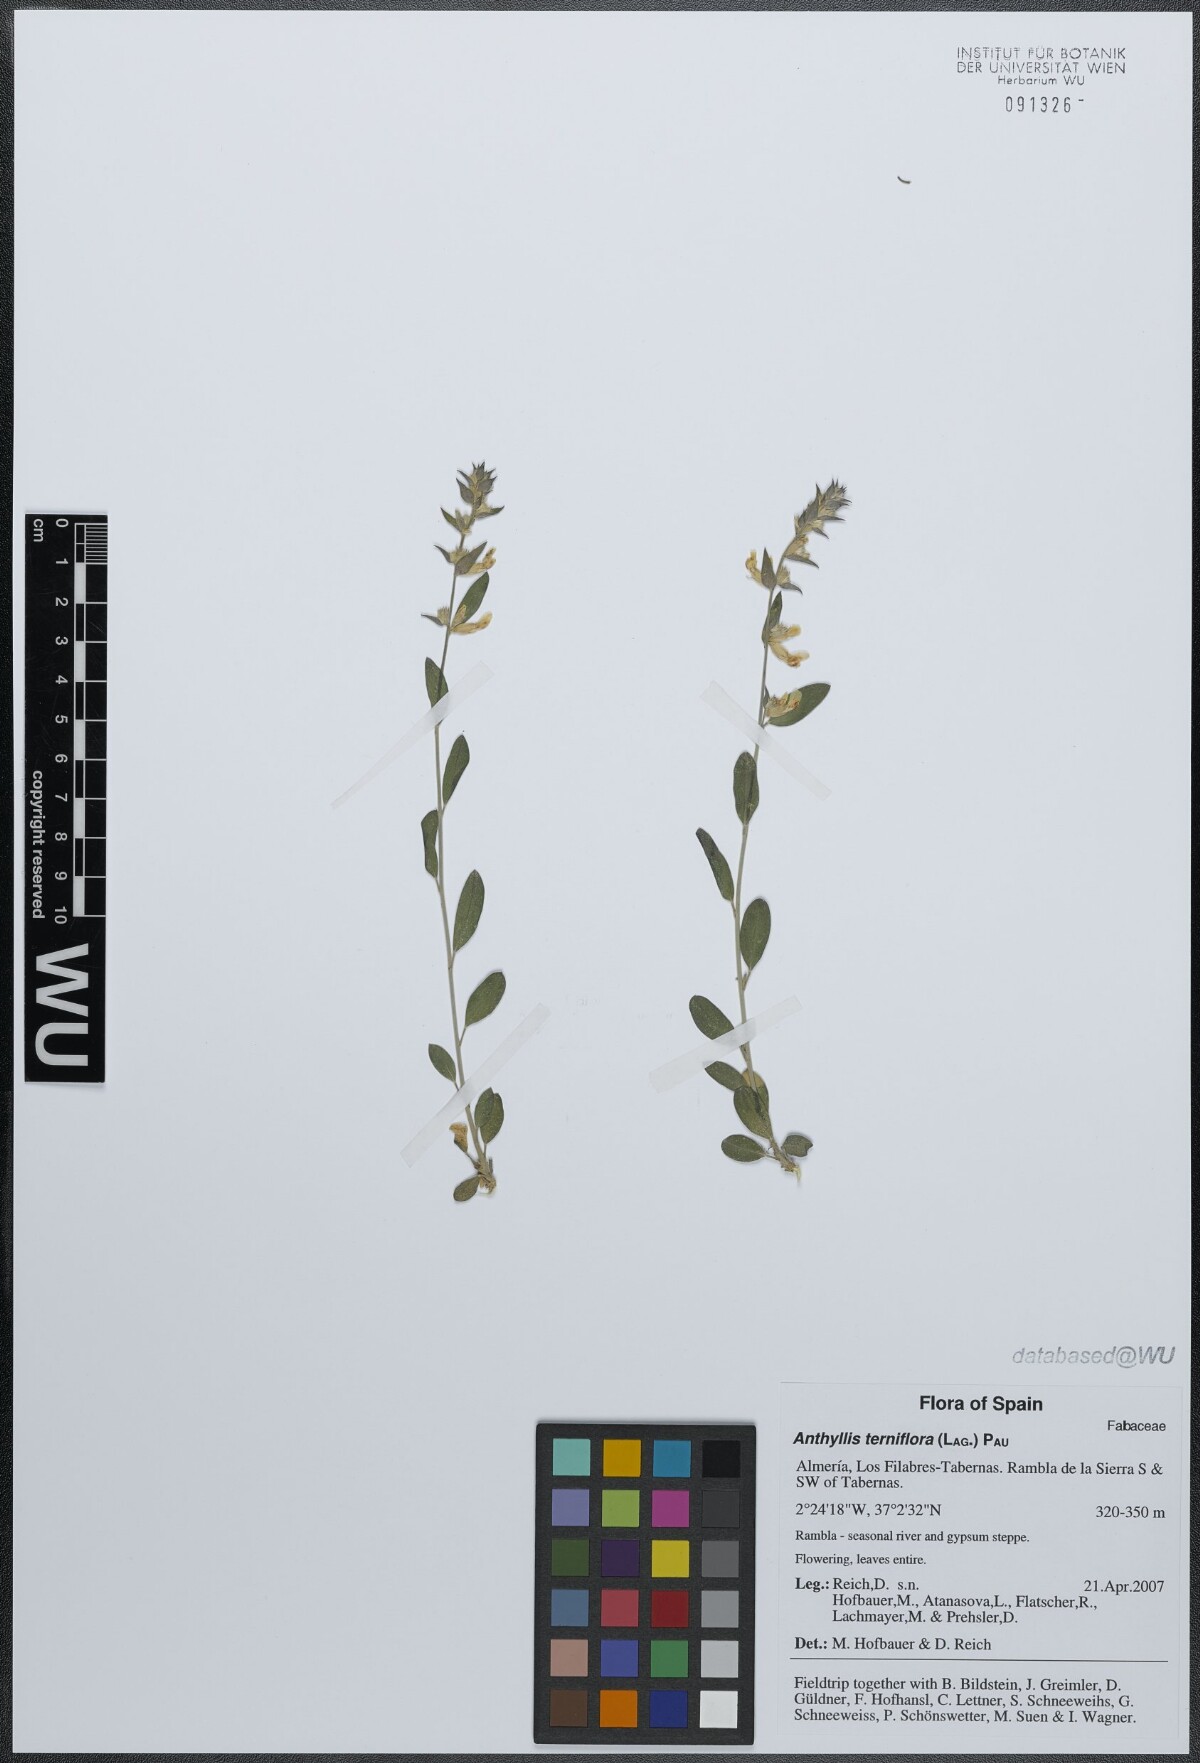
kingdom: Plantae
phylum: Tracheophyta
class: Magnoliopsida
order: Fabales
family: Fabaceae
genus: Anthyllis
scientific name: Anthyllis terniflora
